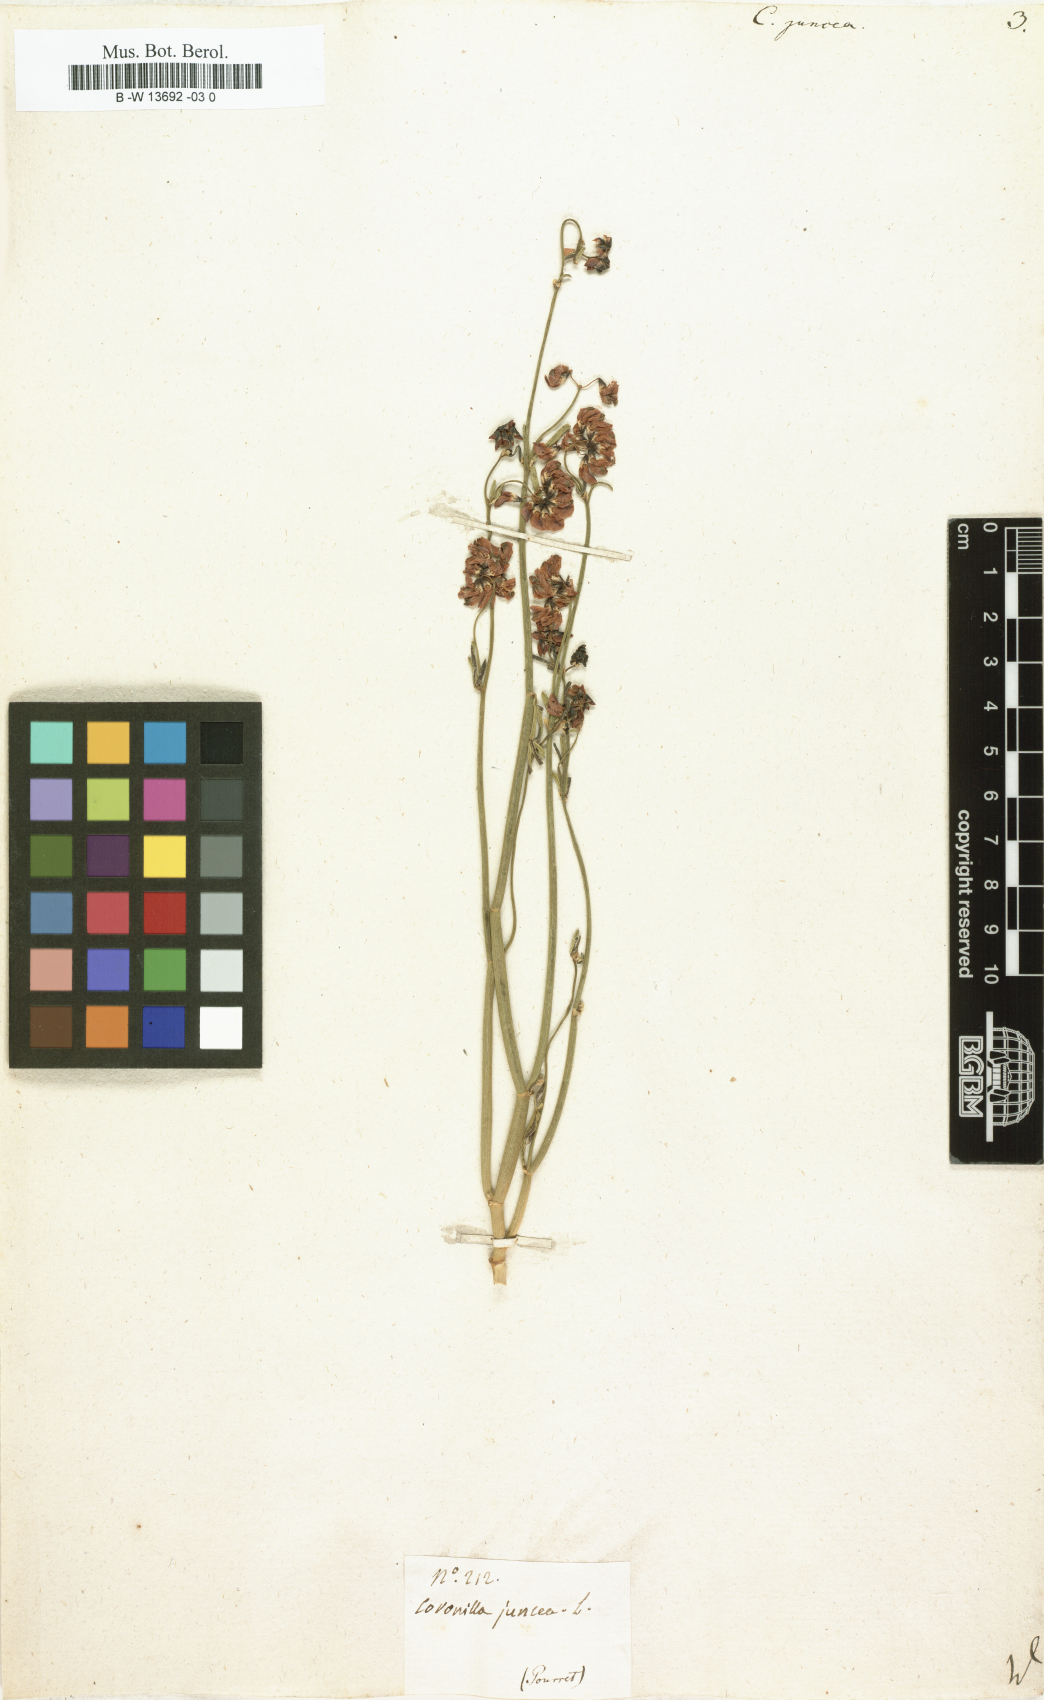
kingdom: Plantae
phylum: Tracheophyta
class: Magnoliopsida
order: Fabales
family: Fabaceae
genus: Coronilla
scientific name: Coronilla juncea
